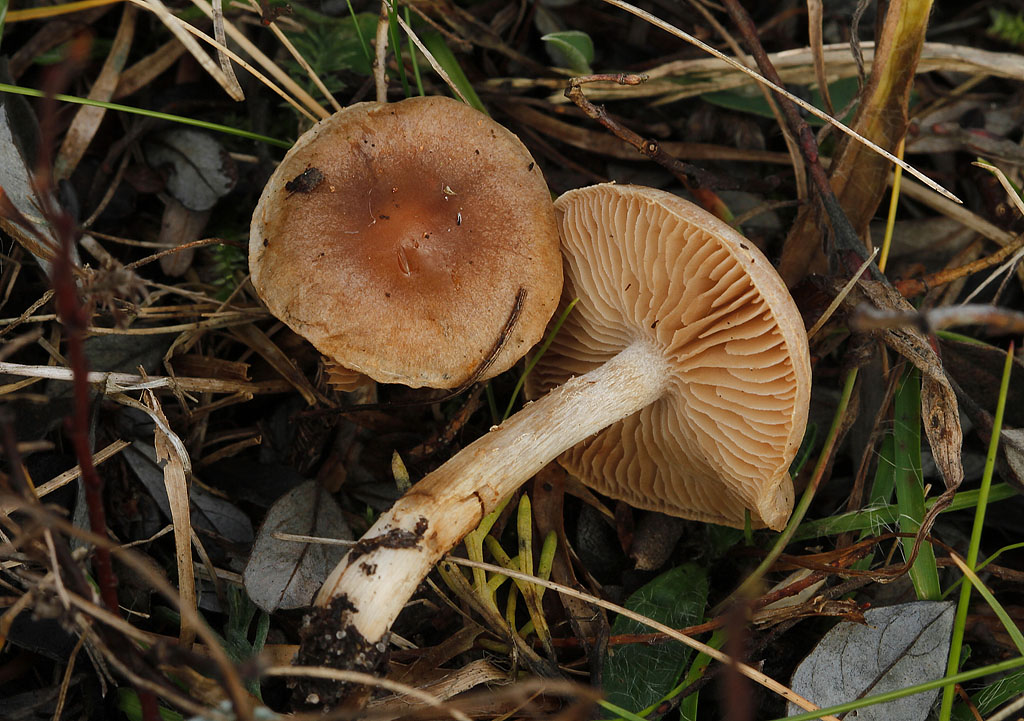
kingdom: Fungi
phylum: Basidiomycota
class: Agaricomycetes
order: Agaricales
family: Hymenogastraceae
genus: Hebeloma
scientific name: Hebeloma mesophaeum
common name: lerbrun tåreblad
